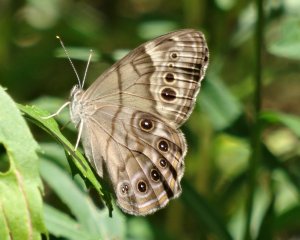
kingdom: Animalia
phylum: Arthropoda
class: Insecta
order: Lepidoptera
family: Nymphalidae
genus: Lethe
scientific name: Lethe anthedon
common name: Northern Pearly-Eye
